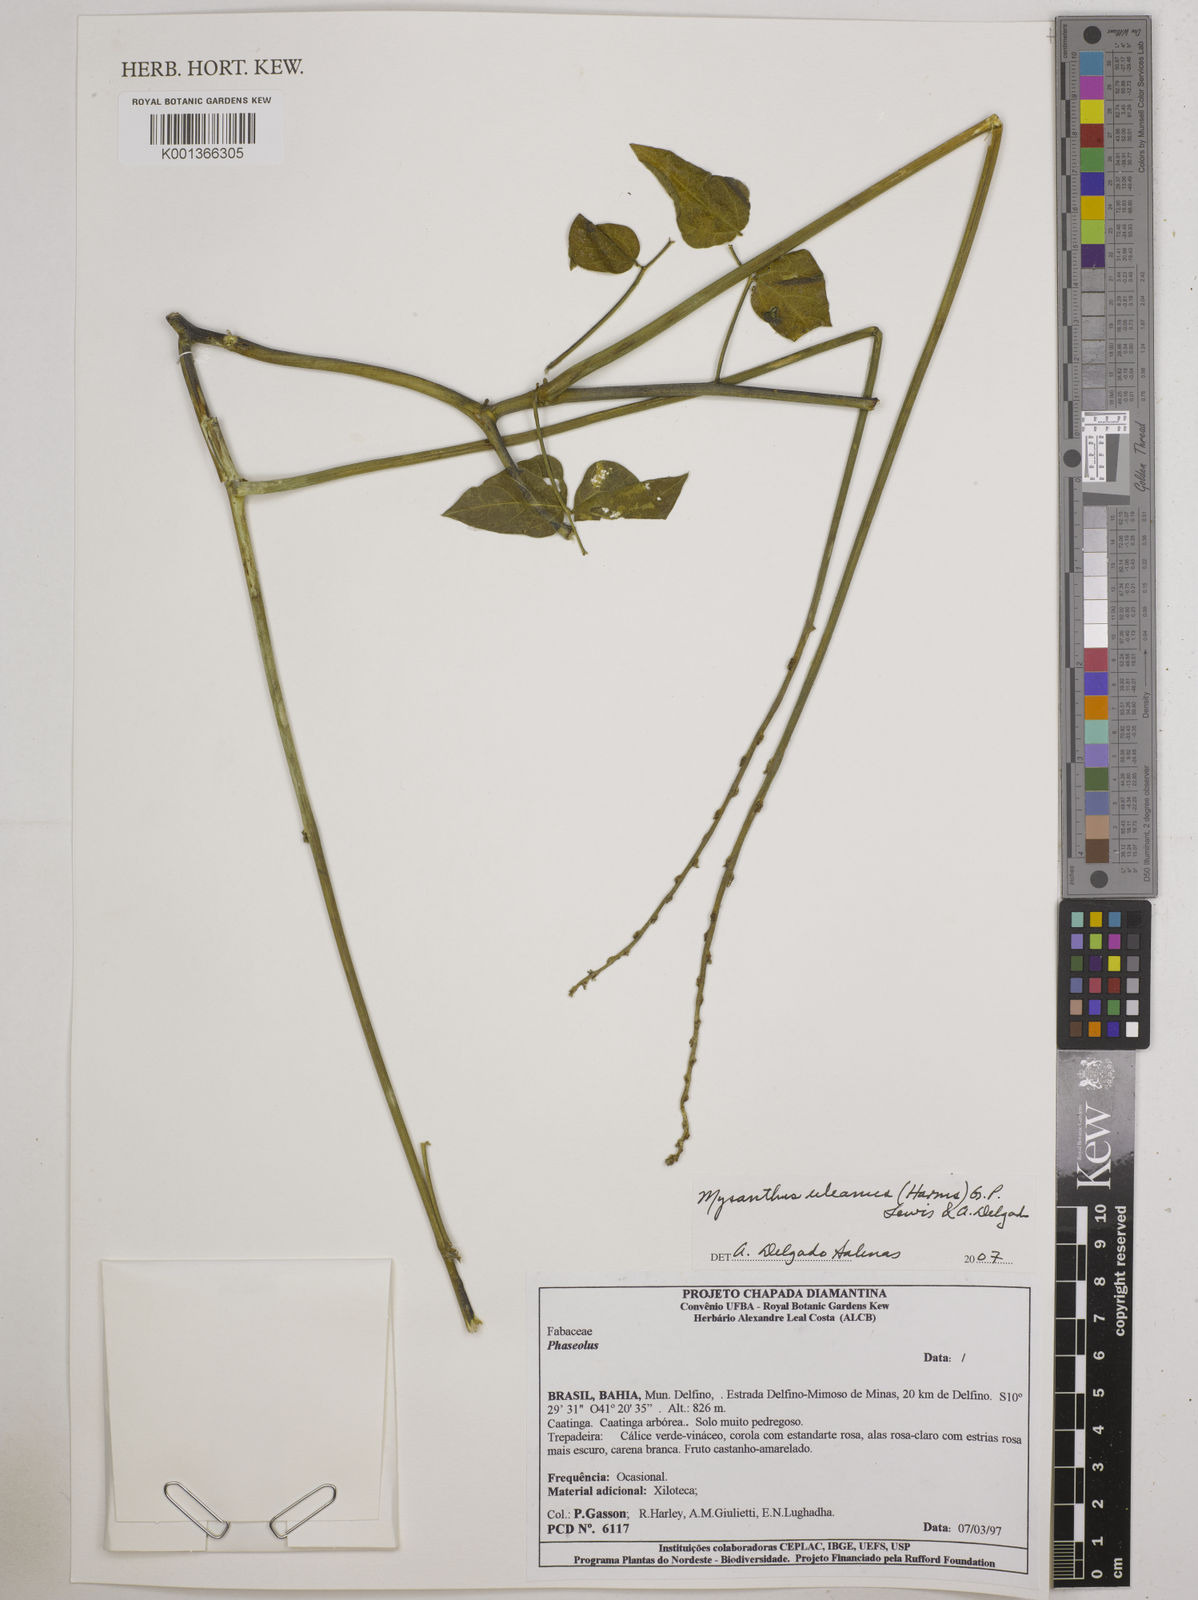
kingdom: Plantae
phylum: Tracheophyta
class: Magnoliopsida
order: Fabales
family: Fabaceae
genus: Mysanthus
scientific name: Mysanthus uleanus
